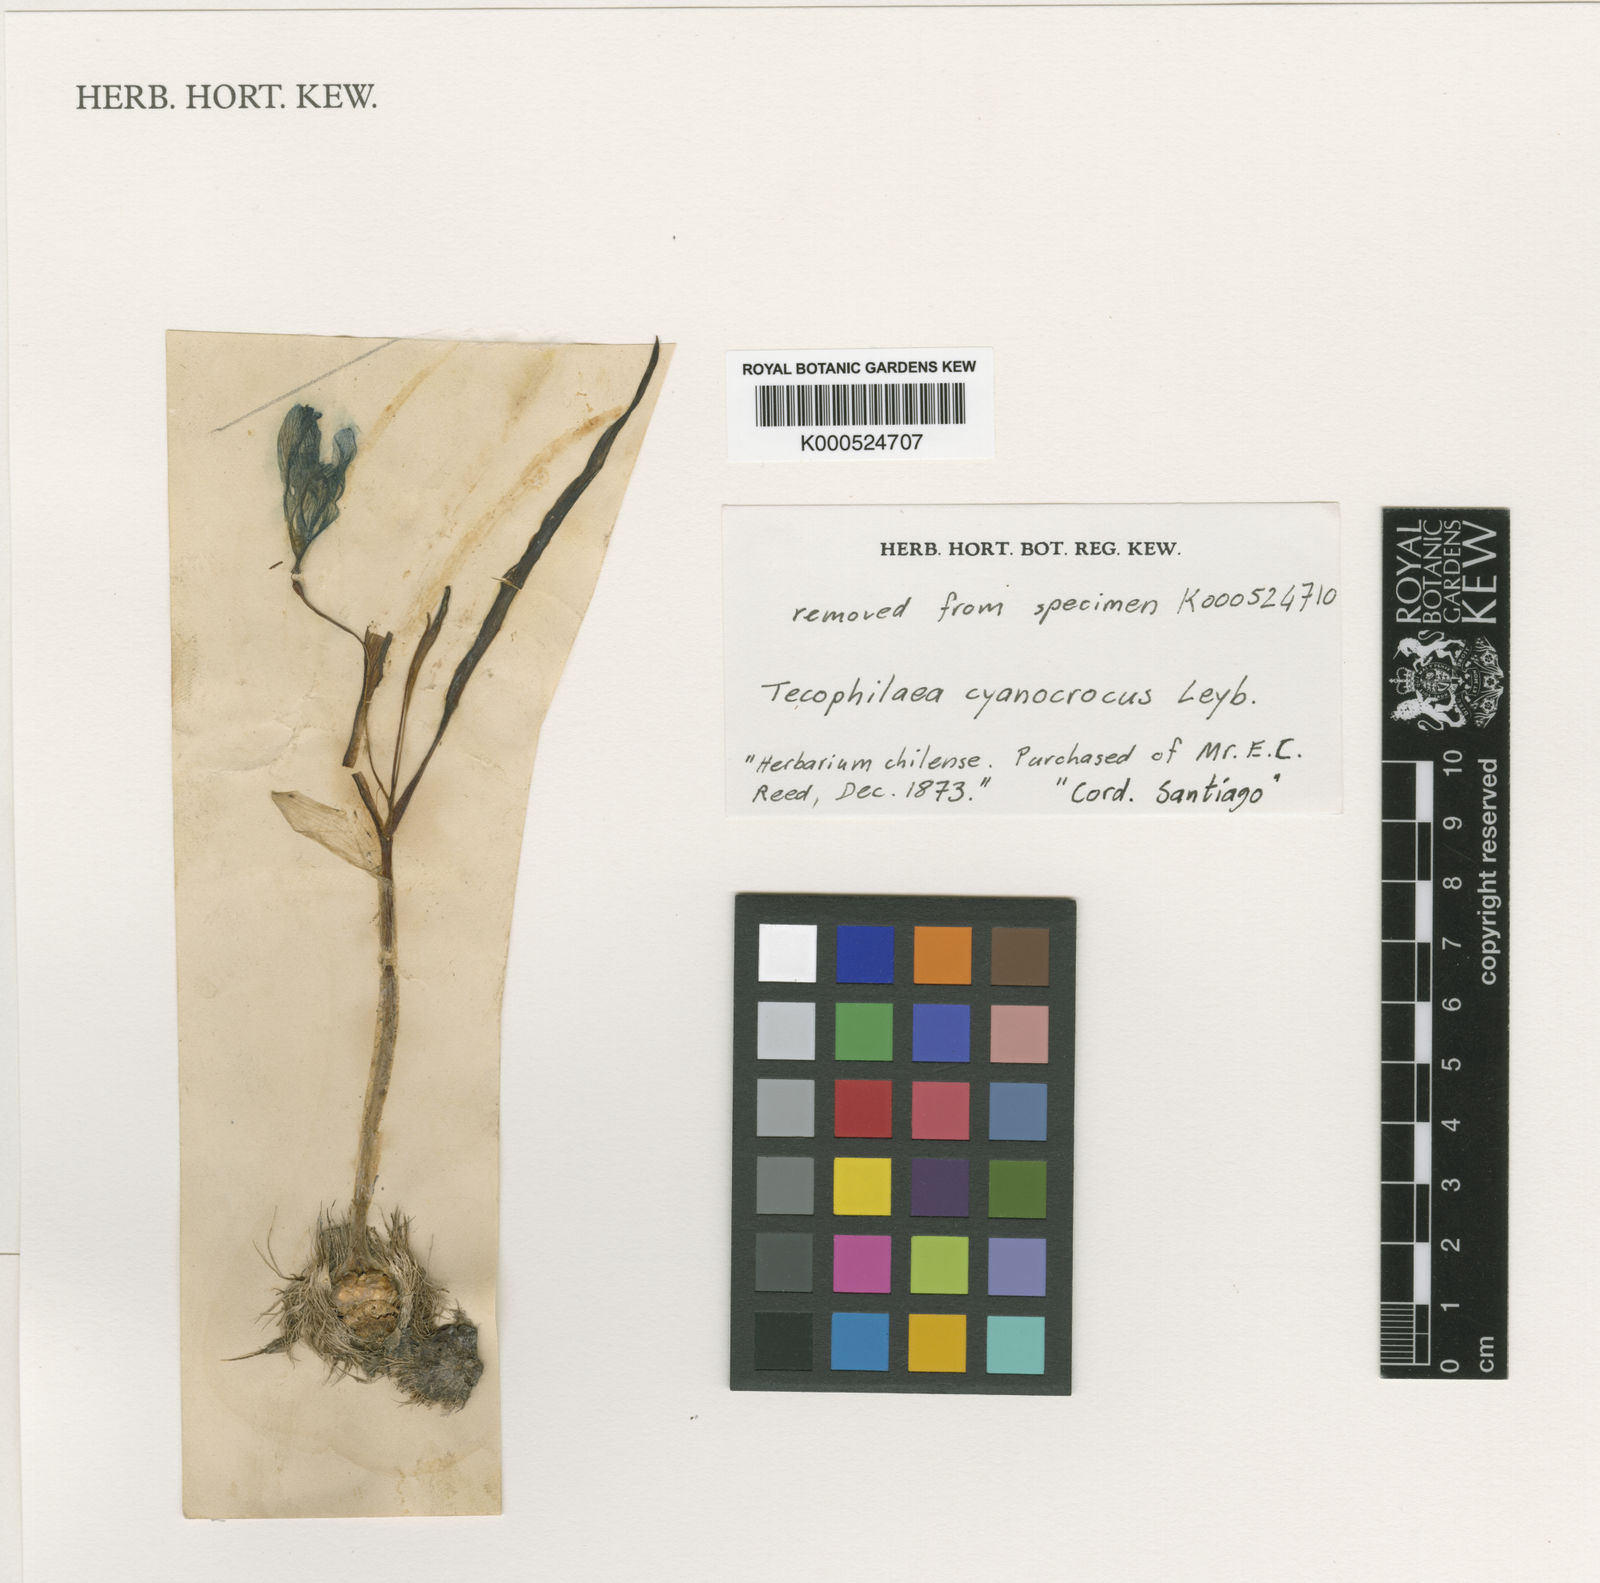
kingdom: Plantae
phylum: Tracheophyta
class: Liliopsida
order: Asparagales
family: Tecophilaeaceae
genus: Tecophilaea
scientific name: Tecophilaea cyanocrocus
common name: Chilean blue-crocus
